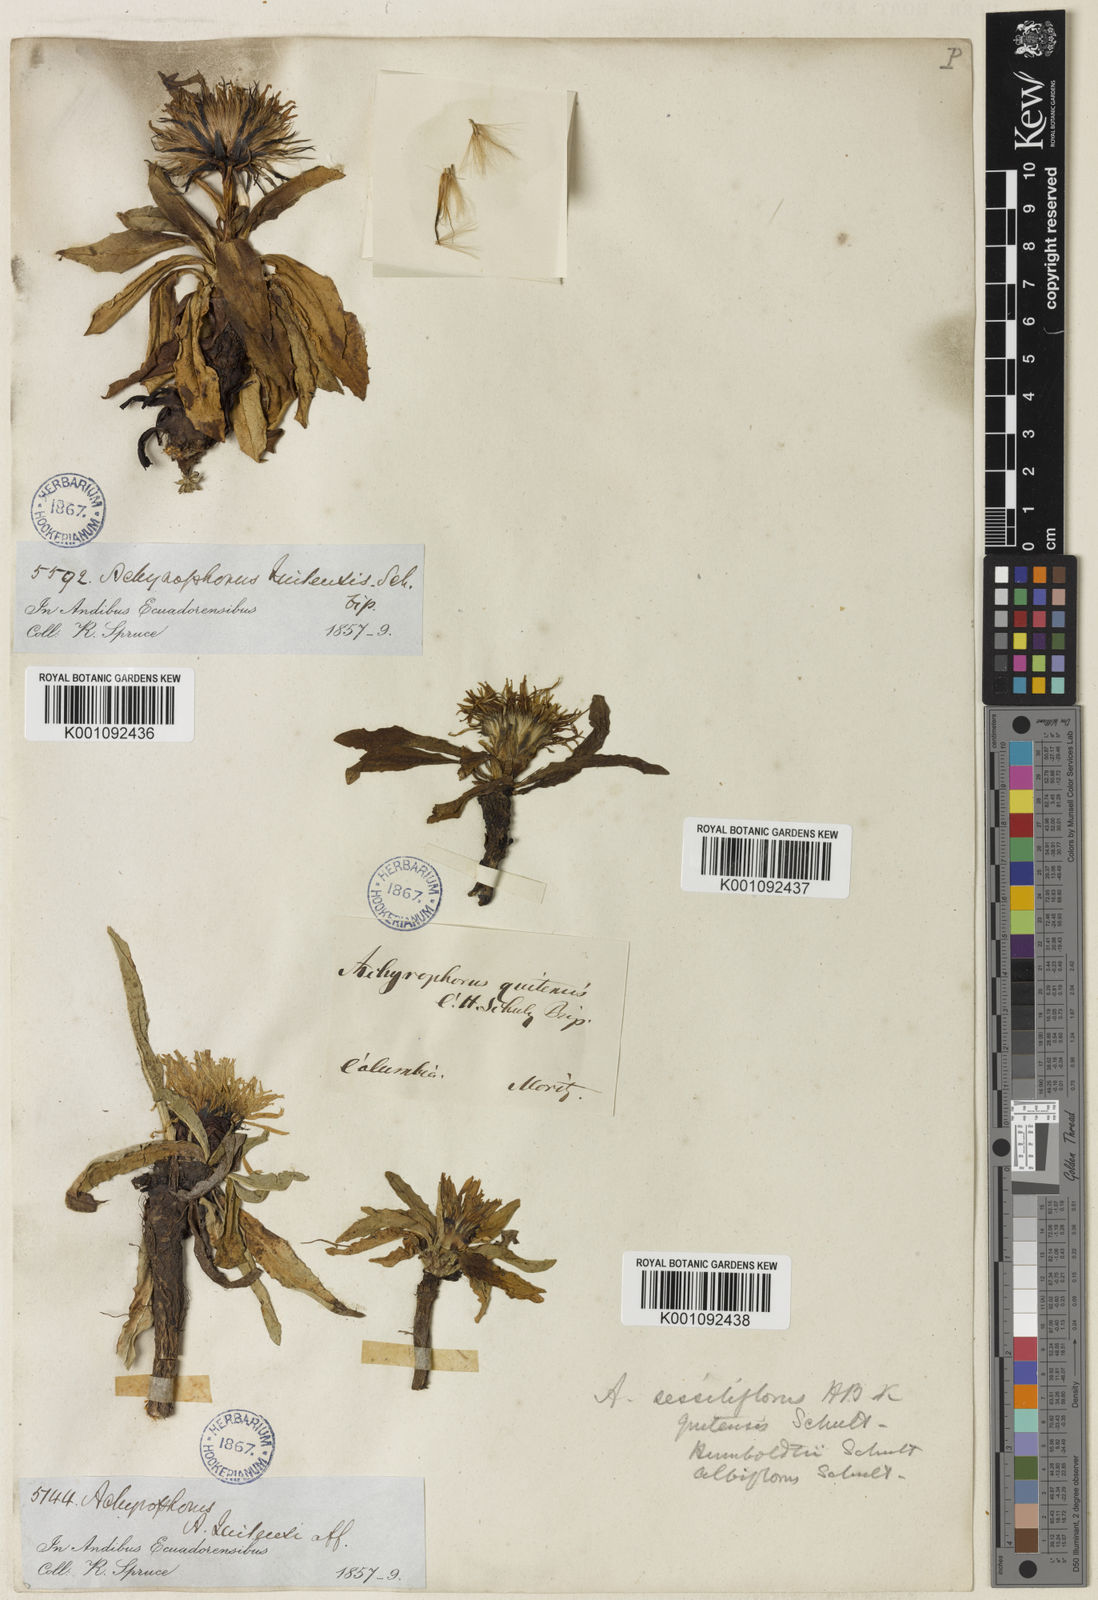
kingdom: Plantae
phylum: Tracheophyta
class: Magnoliopsida
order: Asterales
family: Asteraceae
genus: Hypochaeris
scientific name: Hypochaeris
